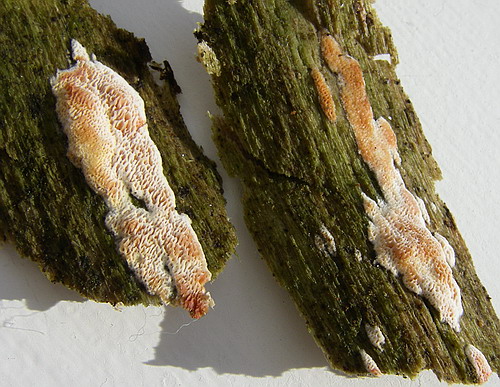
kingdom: Fungi
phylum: Basidiomycota
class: Agaricomycetes
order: Polyporales
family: Irpicaceae
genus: Ceriporia
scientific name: Ceriporia purpurea
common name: purpur-voksporesvamp
